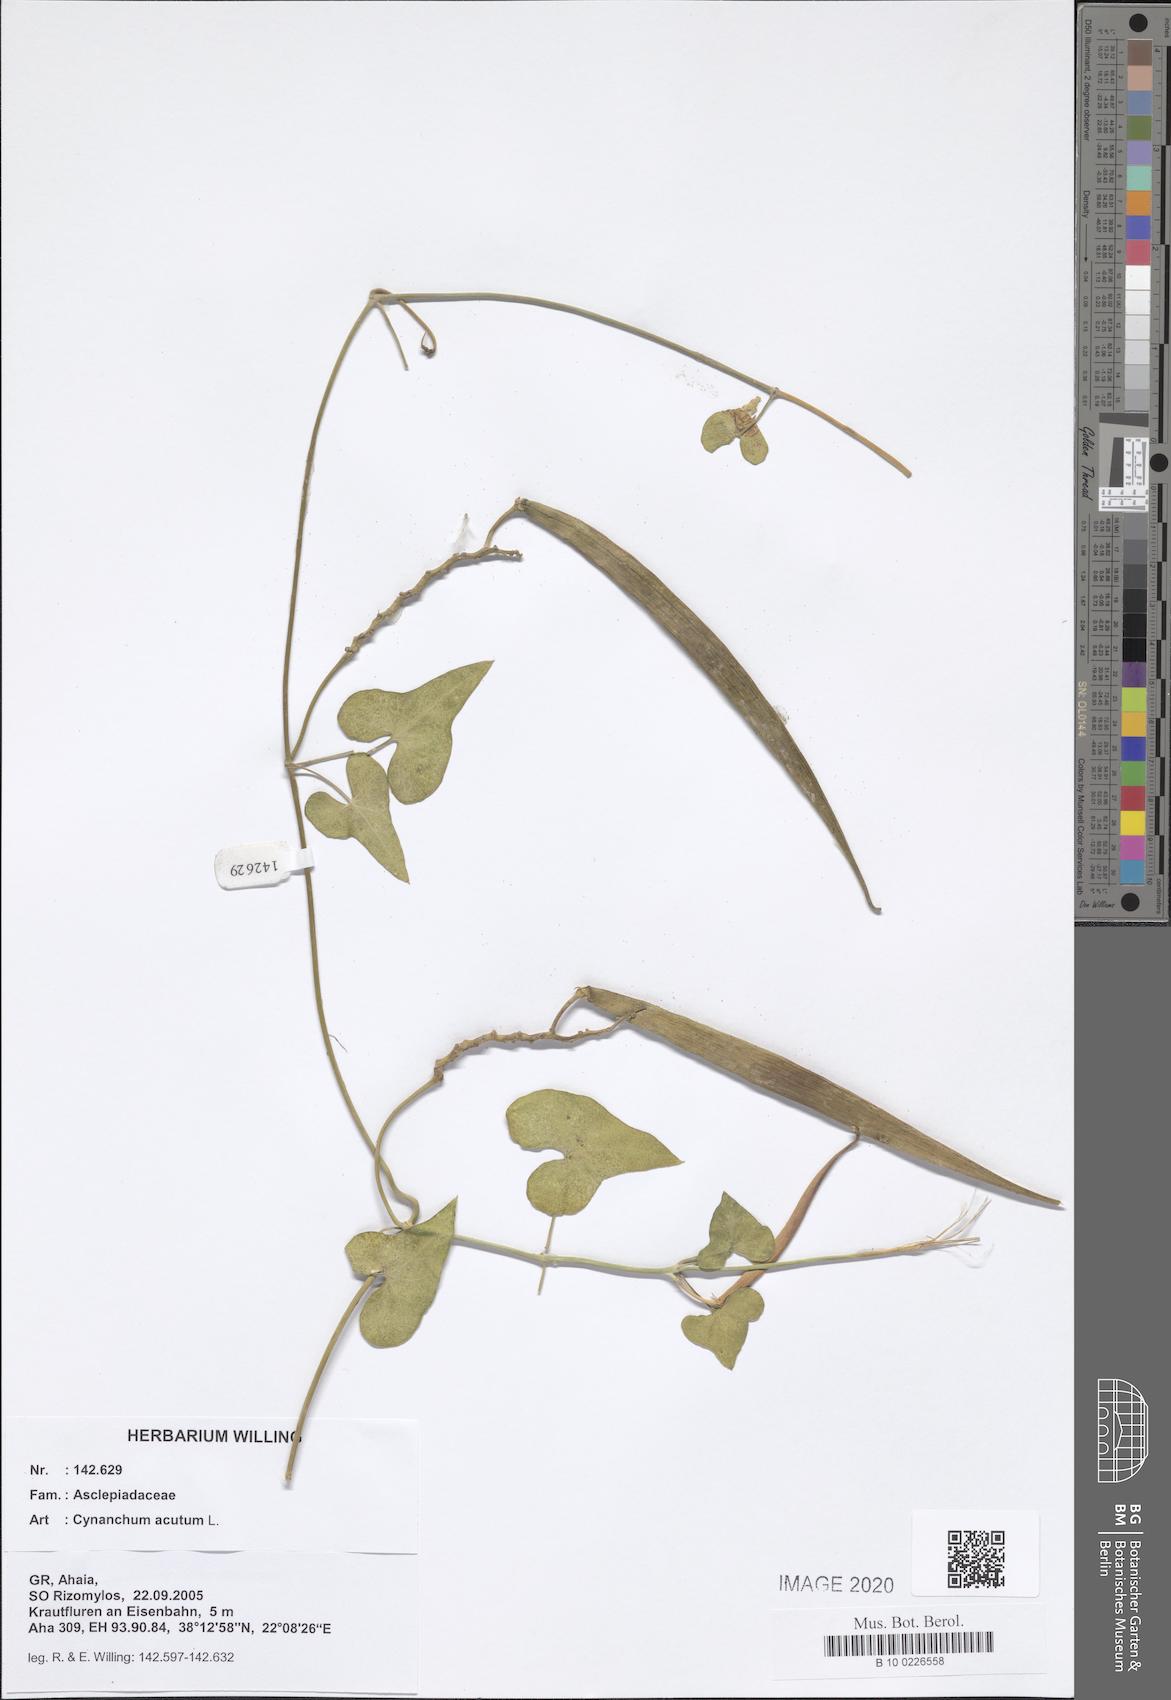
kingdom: Plantae
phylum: Tracheophyta
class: Magnoliopsida
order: Gentianales
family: Apocynaceae
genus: Cynanchum
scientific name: Cynanchum acutum
